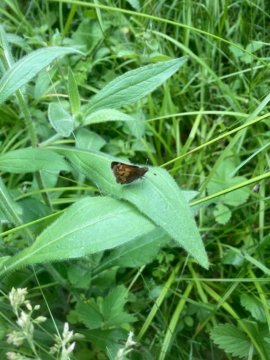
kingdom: Animalia
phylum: Arthropoda
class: Insecta
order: Lepidoptera
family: Hesperiidae
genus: Lon
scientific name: Lon hobomok
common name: Hobomok Skipper
